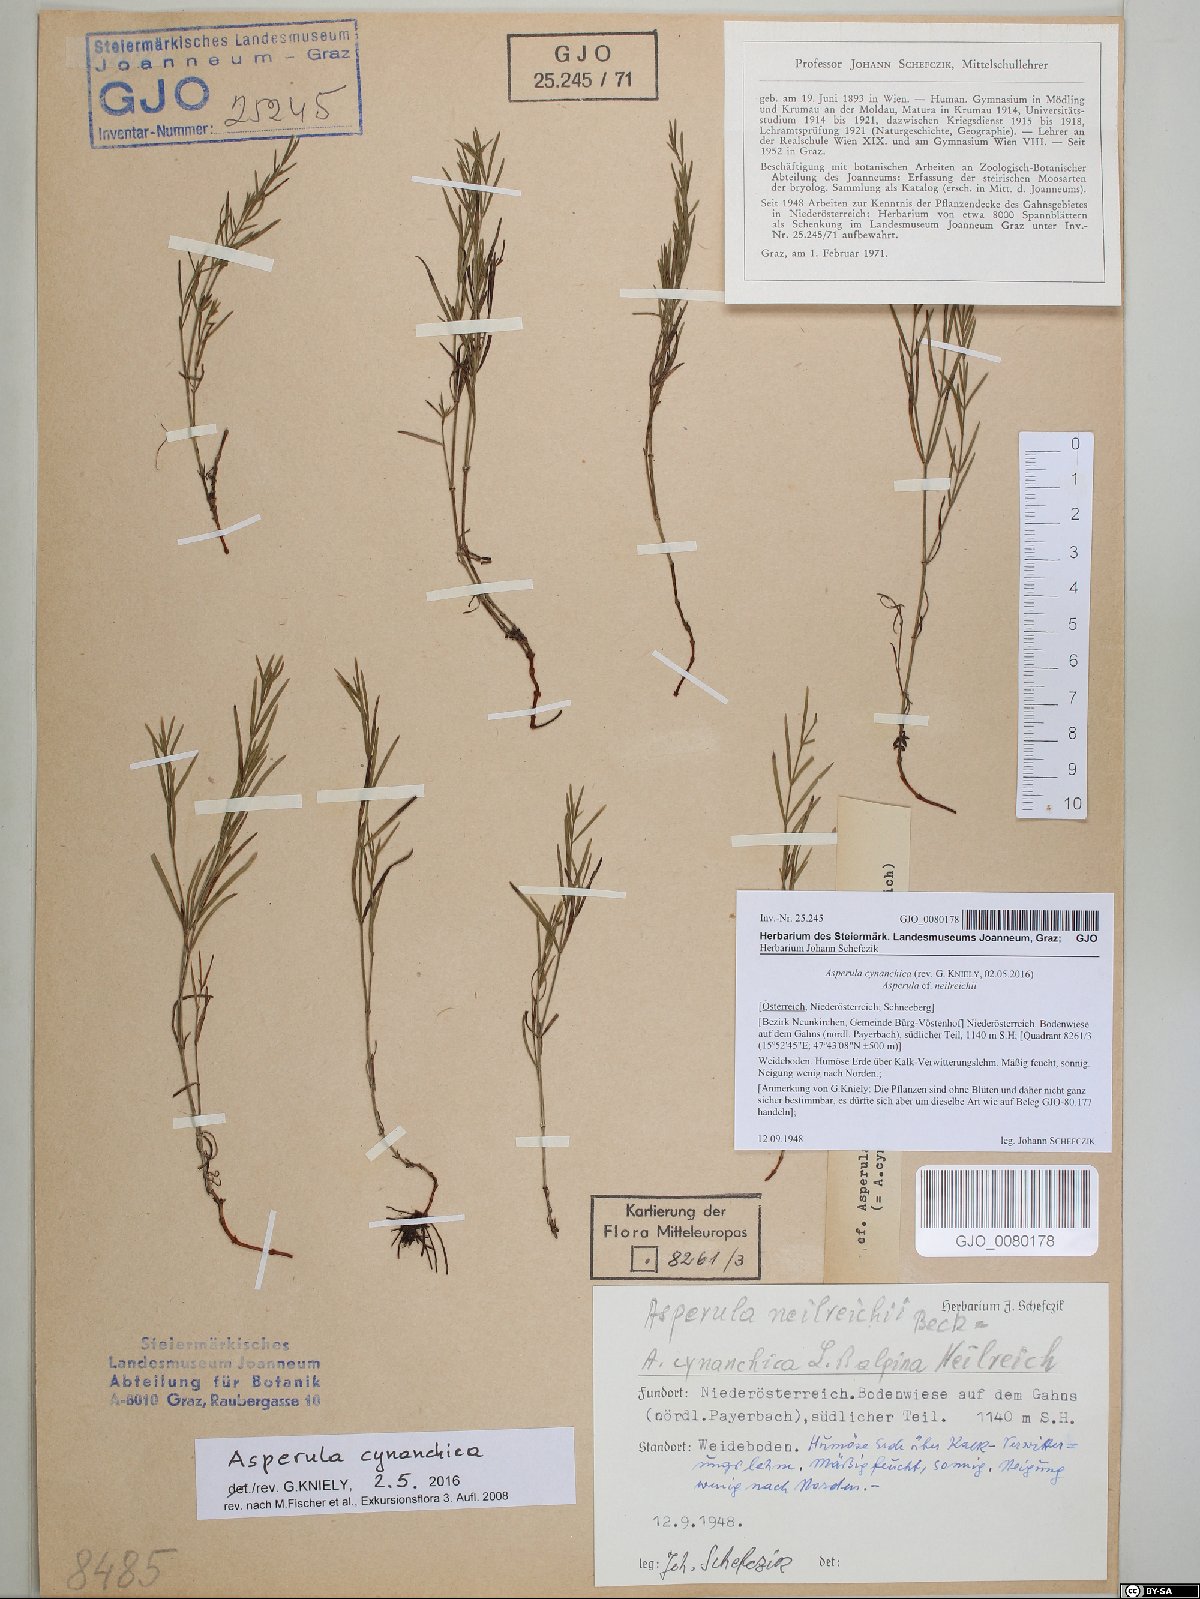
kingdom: Plantae
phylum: Tracheophyta
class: Magnoliopsida
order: Gentianales
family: Rubiaceae
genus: Cynanchica
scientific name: Cynanchica pyrenaica
